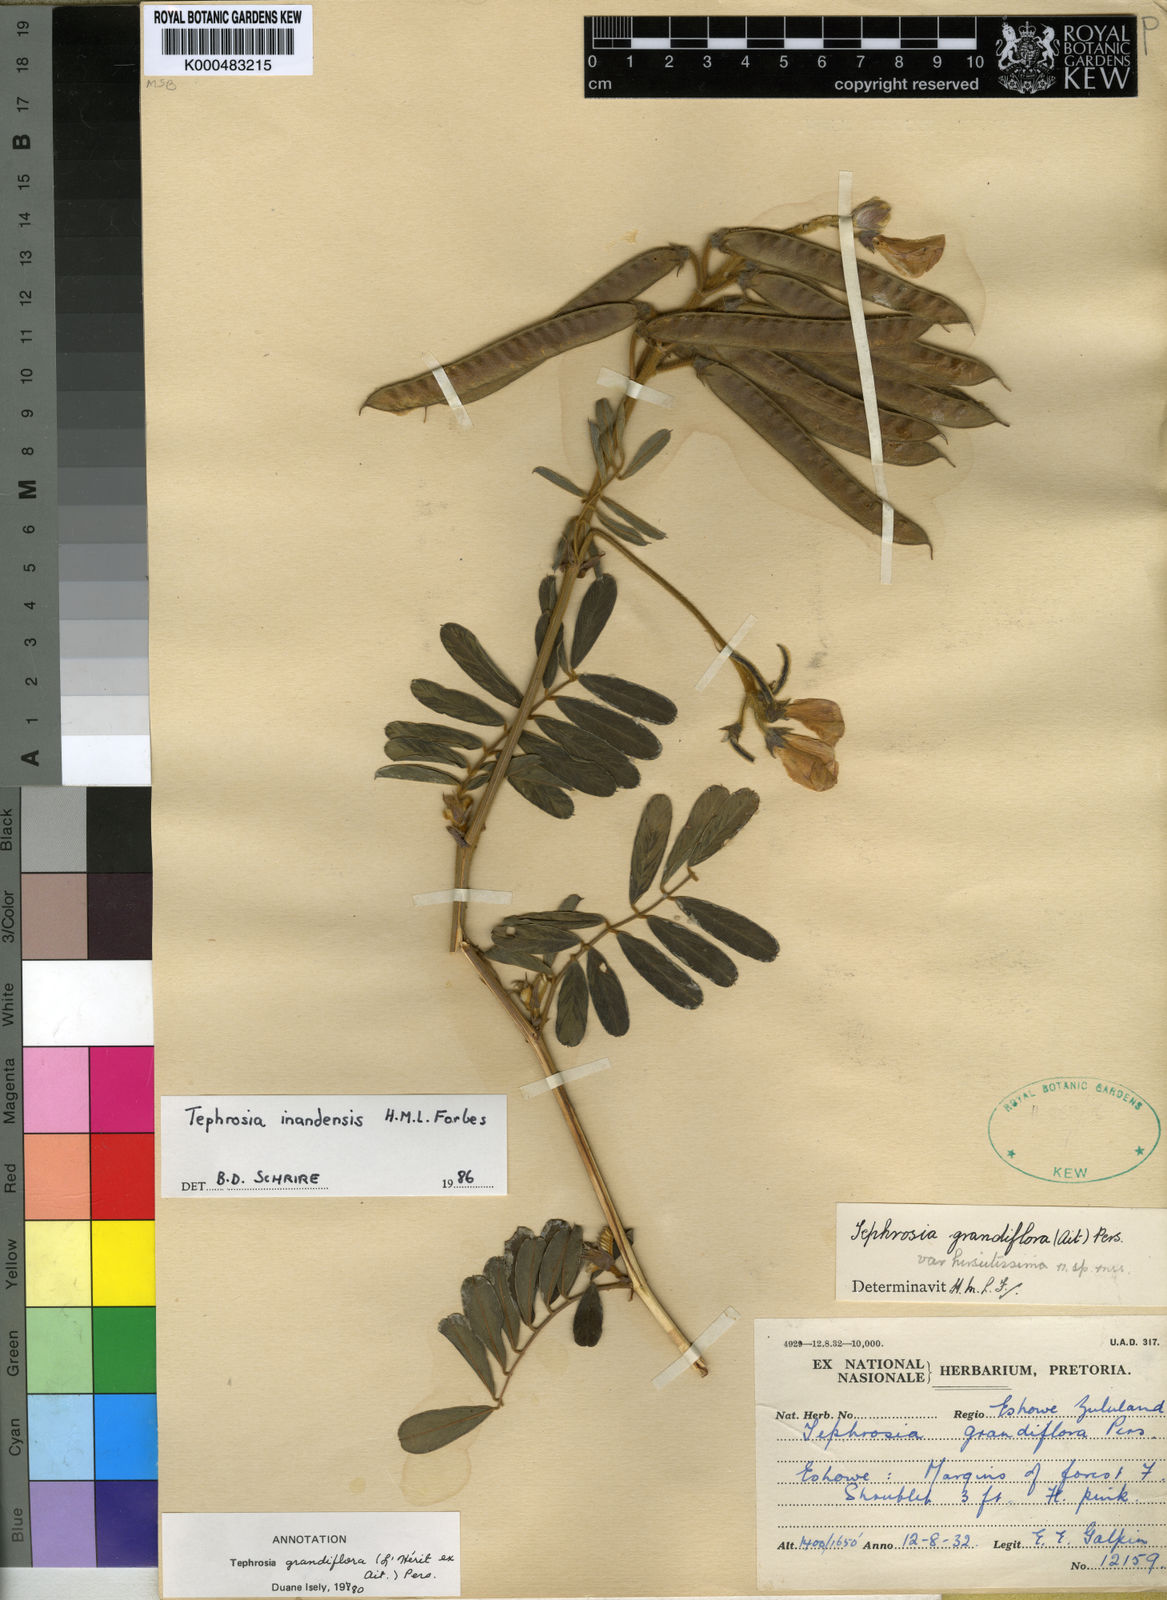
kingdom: Plantae
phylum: Tracheophyta
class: Magnoliopsida
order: Fabales
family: Fabaceae
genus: Tephrosia
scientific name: Tephrosia inandensis
